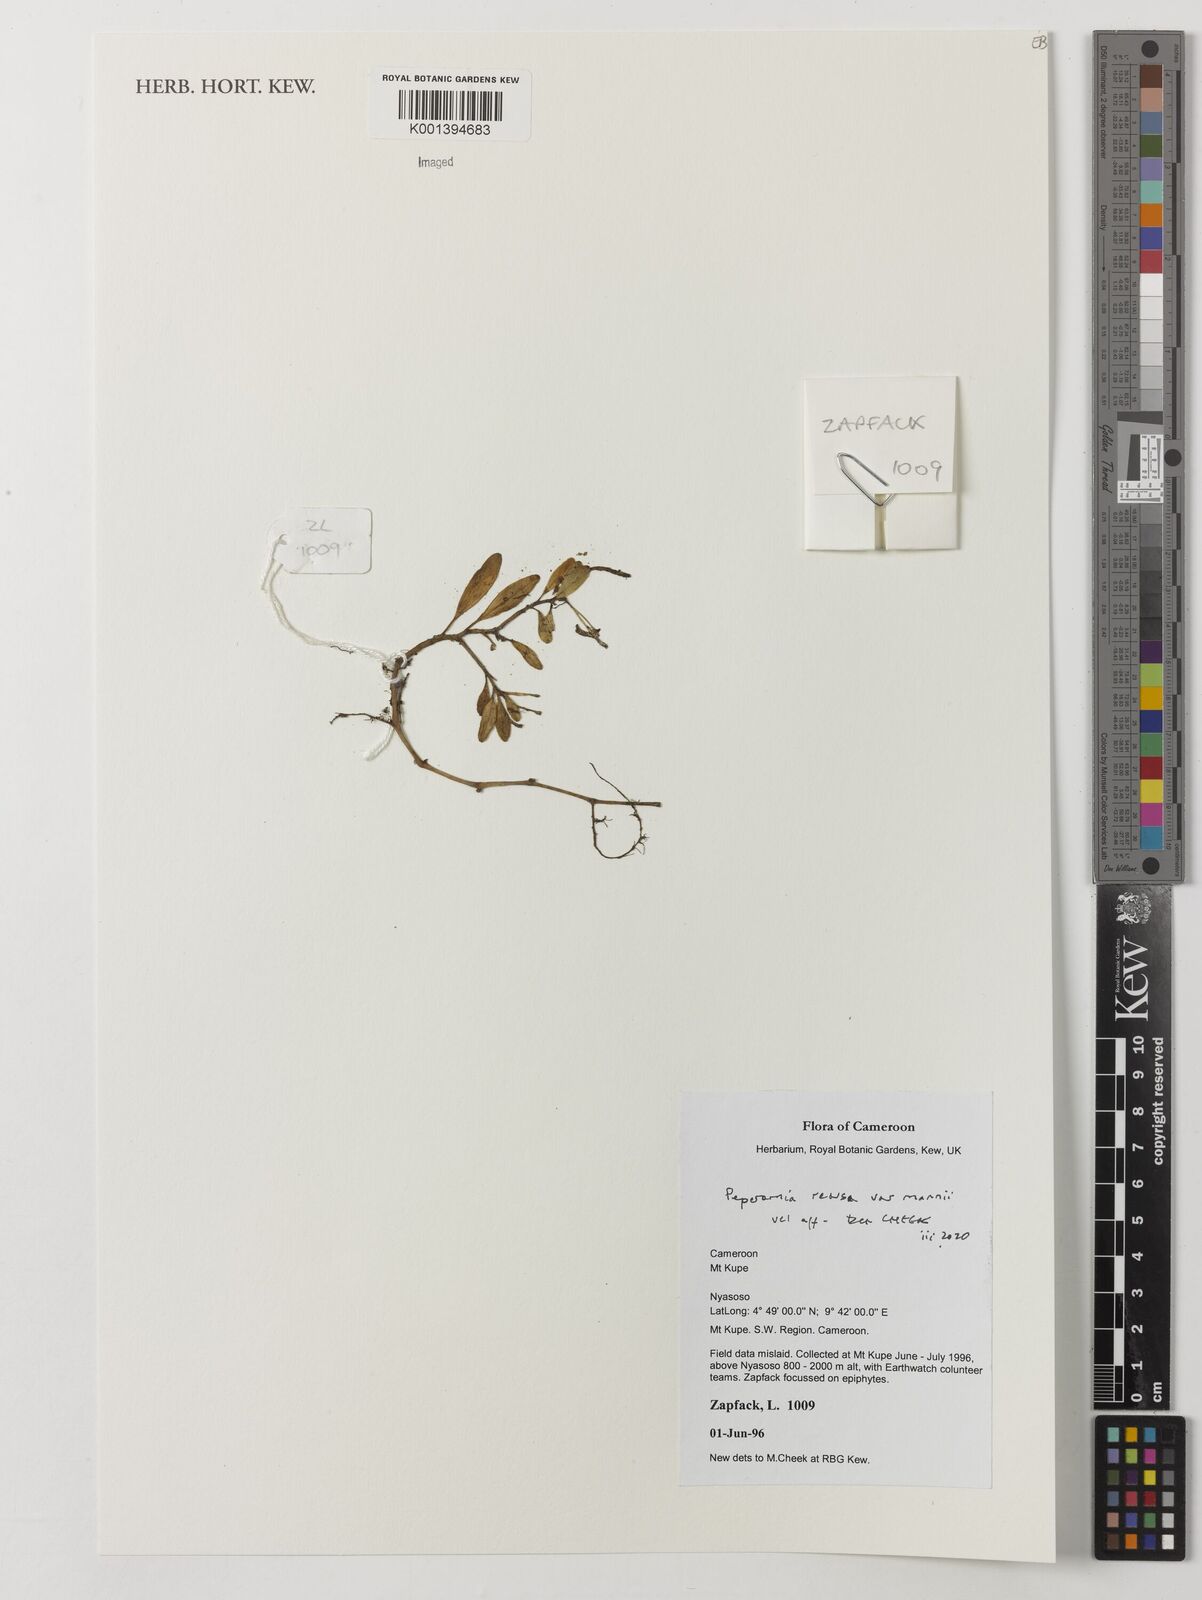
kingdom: Plantae
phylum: Tracheophyta
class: Magnoliopsida
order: Piperales
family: Piperaceae
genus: Peperomia
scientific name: Peperomia retusa
